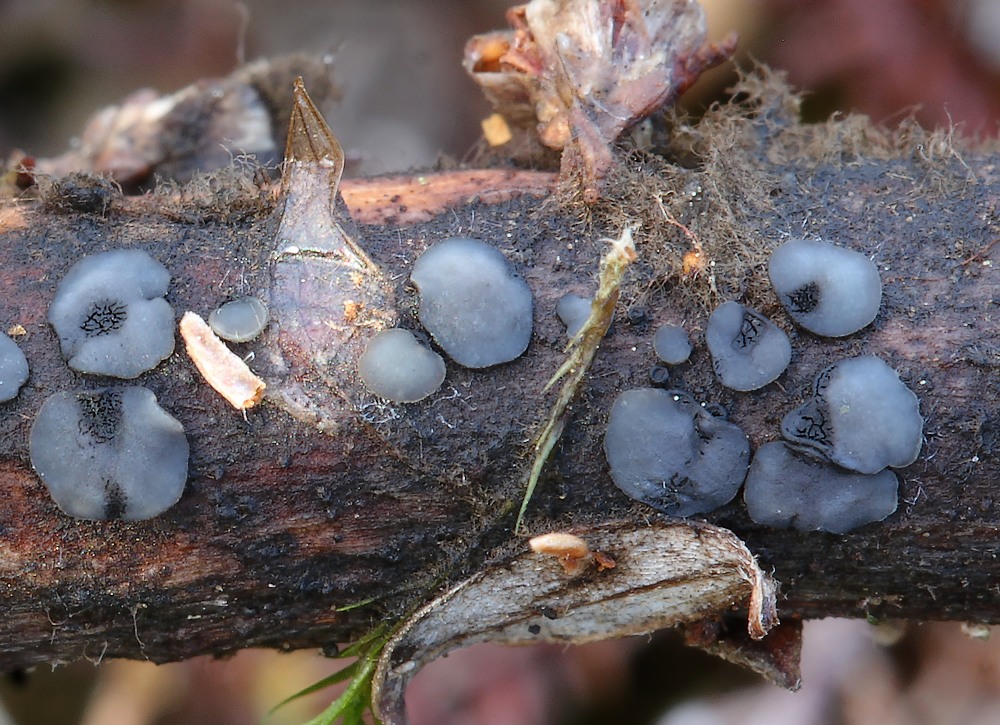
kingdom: Fungi
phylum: Ascomycota
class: Leotiomycetes
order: Helotiales
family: Mollisiaceae
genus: Mollisia
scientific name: Mollisia
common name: gråskive
